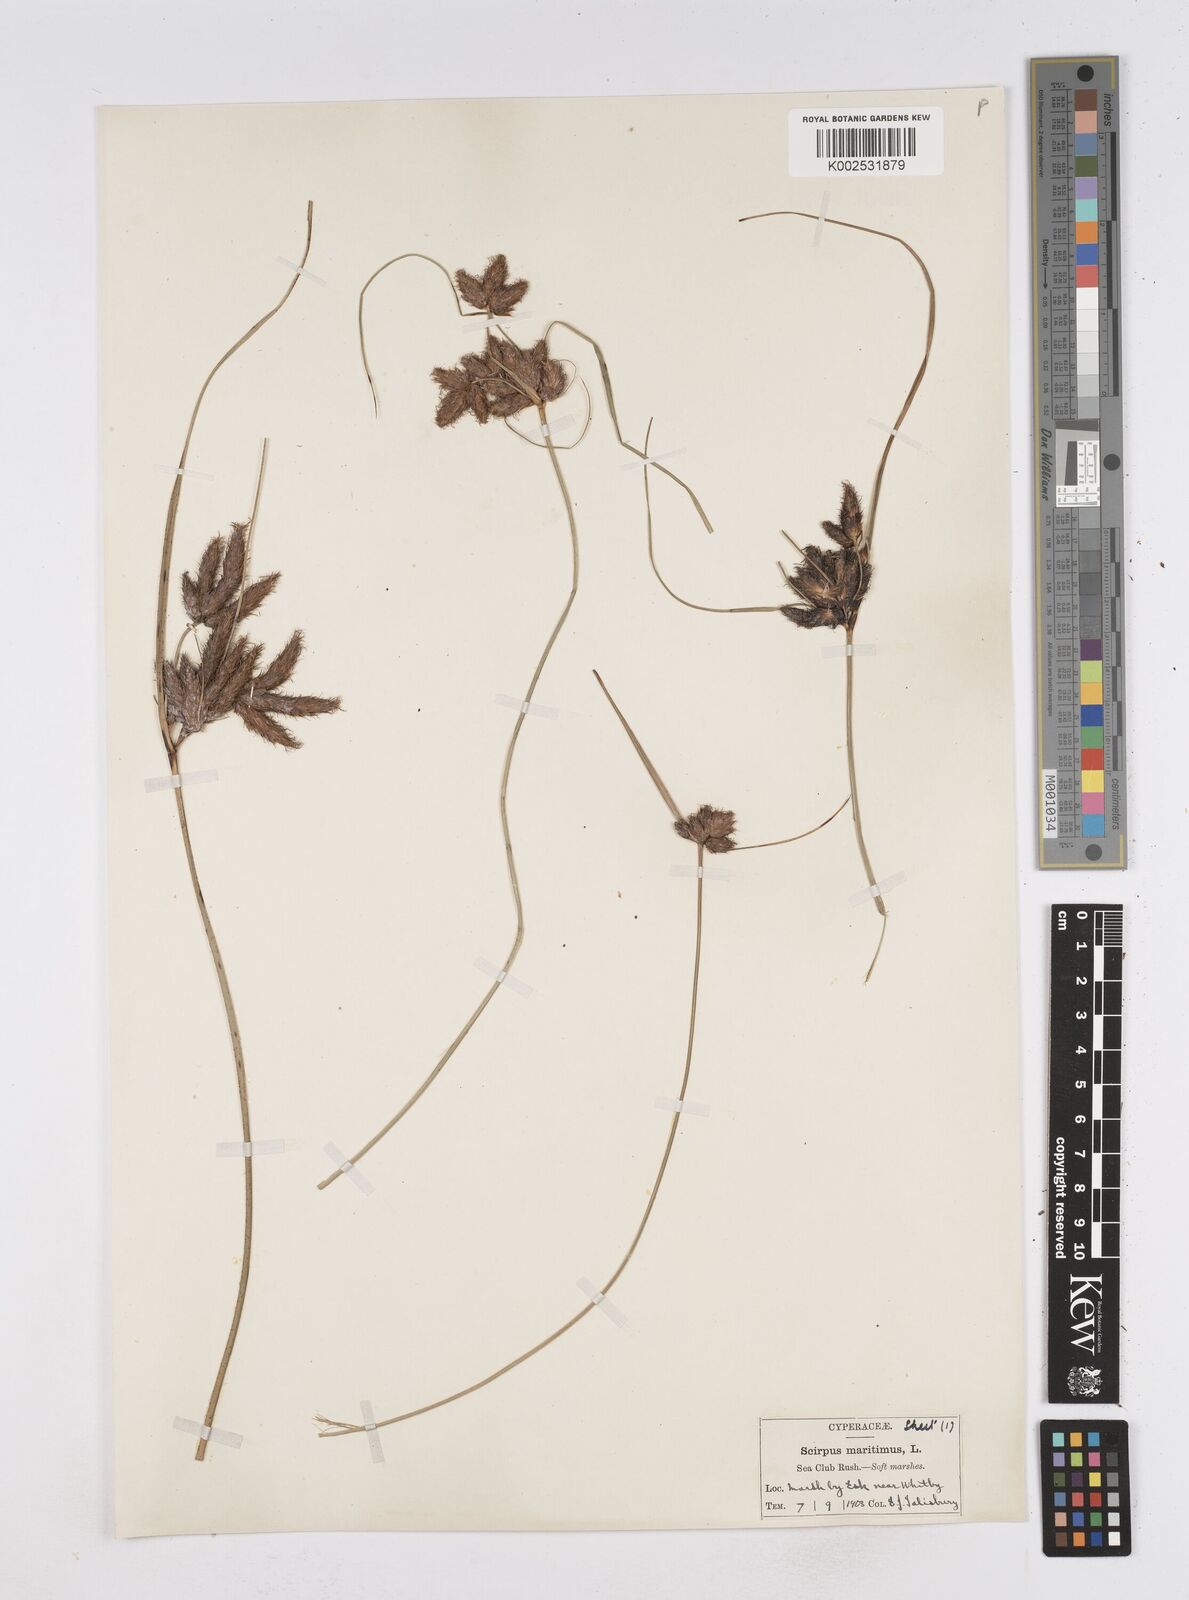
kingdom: Plantae
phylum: Tracheophyta
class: Liliopsida
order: Poales
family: Cyperaceae
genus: Bolboschoenus
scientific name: Bolboschoenus maritimus
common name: Sea club-rush
